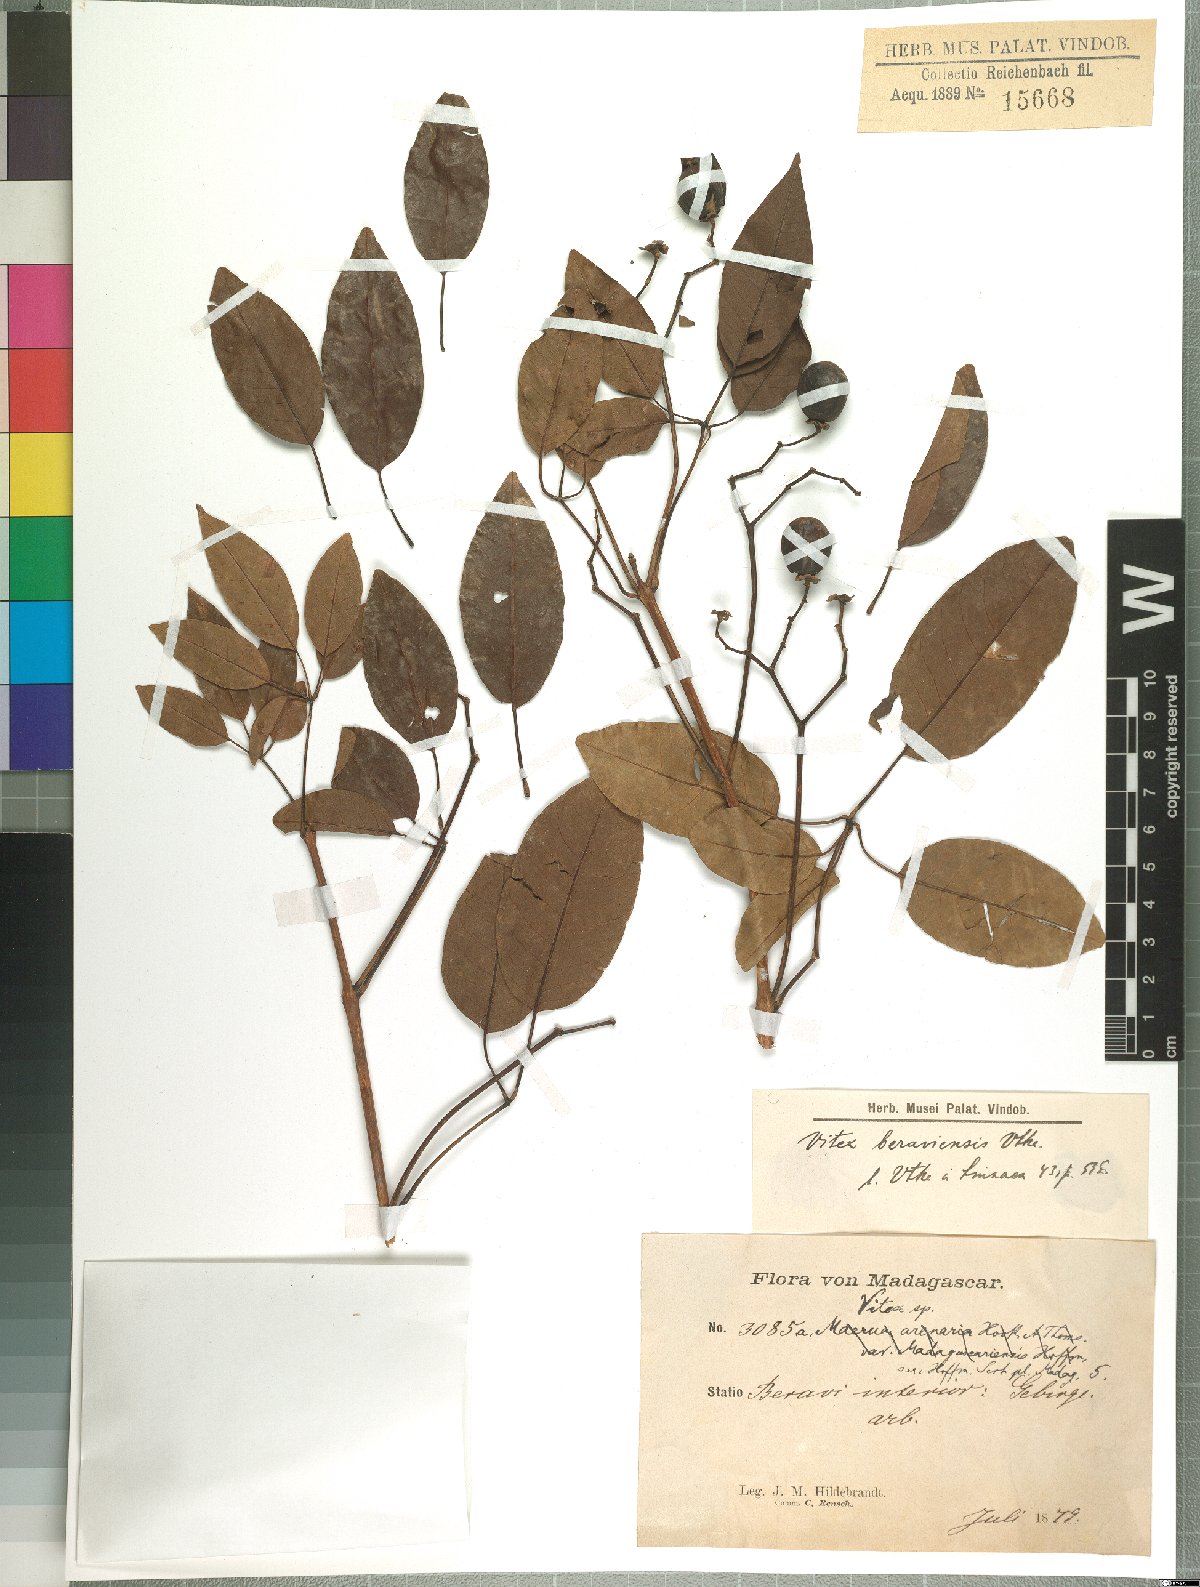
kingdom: Plantae
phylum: Tracheophyta
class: Magnoliopsida
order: Lamiales
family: Lamiaceae
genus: Vitex
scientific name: Vitex beraviensis
